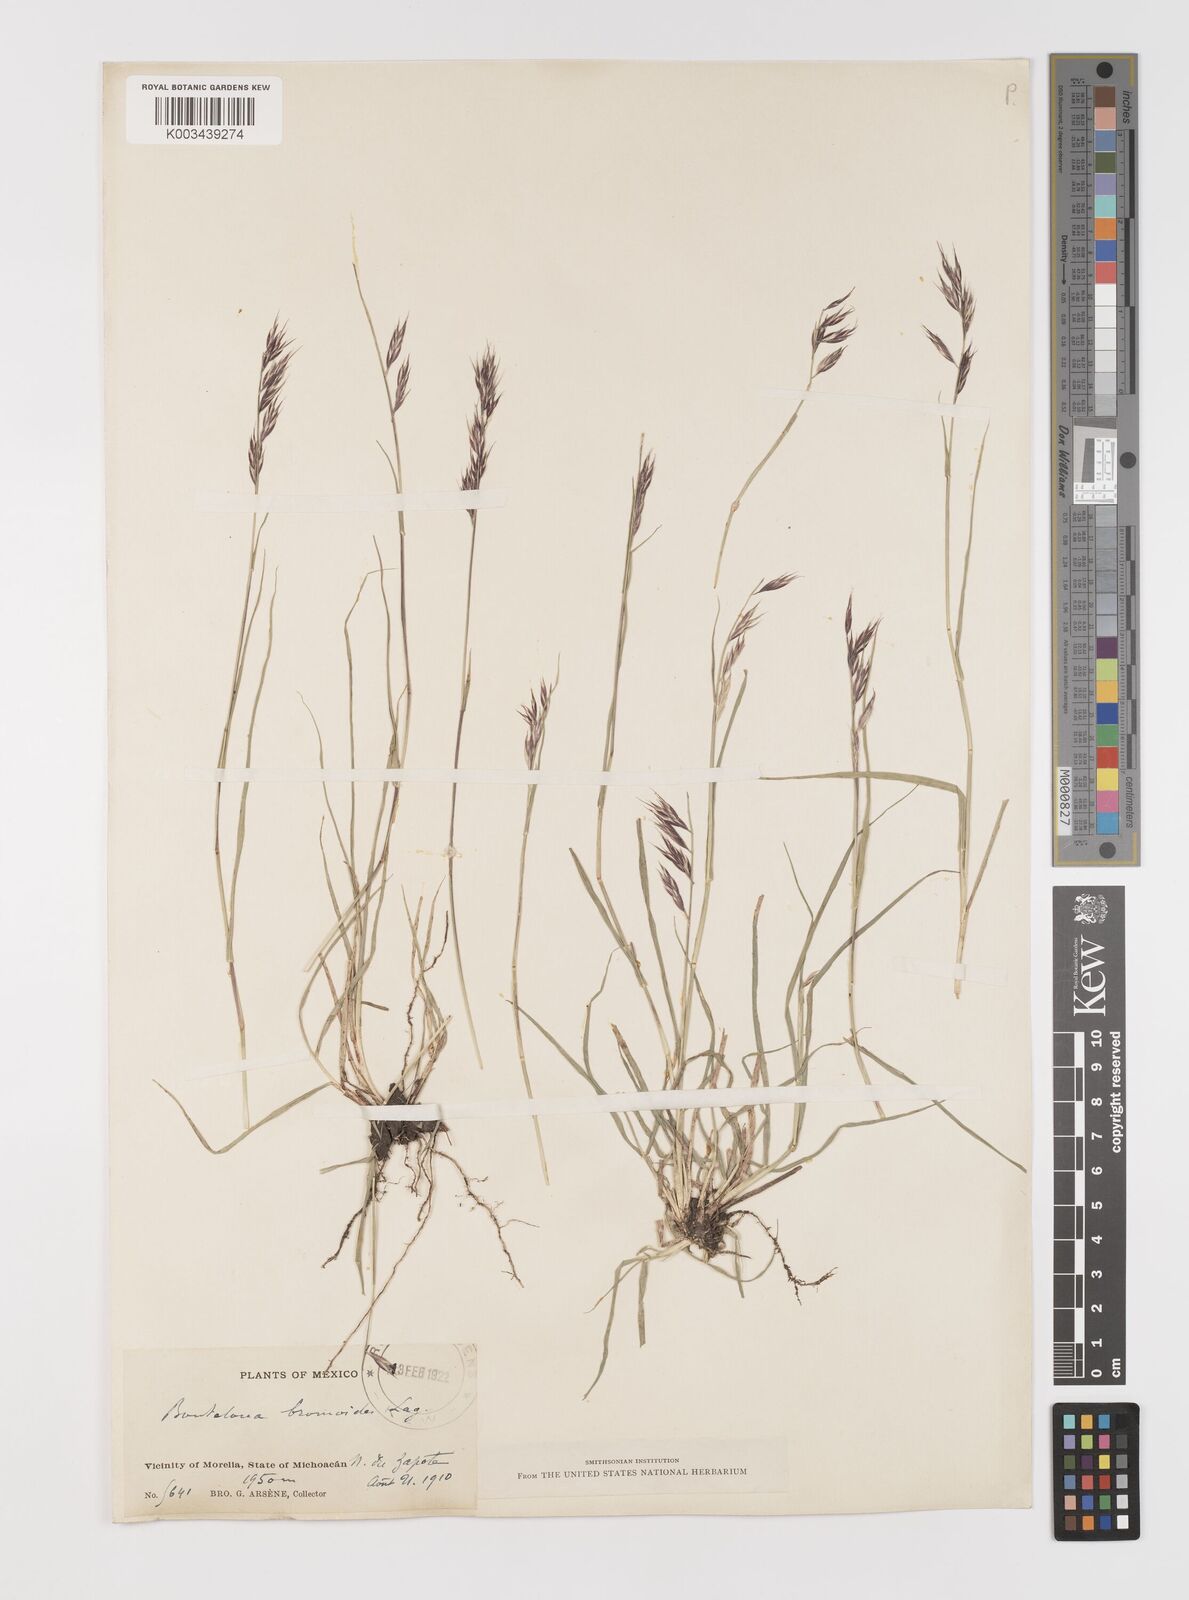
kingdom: Plantae
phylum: Tracheophyta
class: Liliopsida
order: Poales
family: Poaceae
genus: Bouteloua
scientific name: Bouteloua repens
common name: Slender grama
